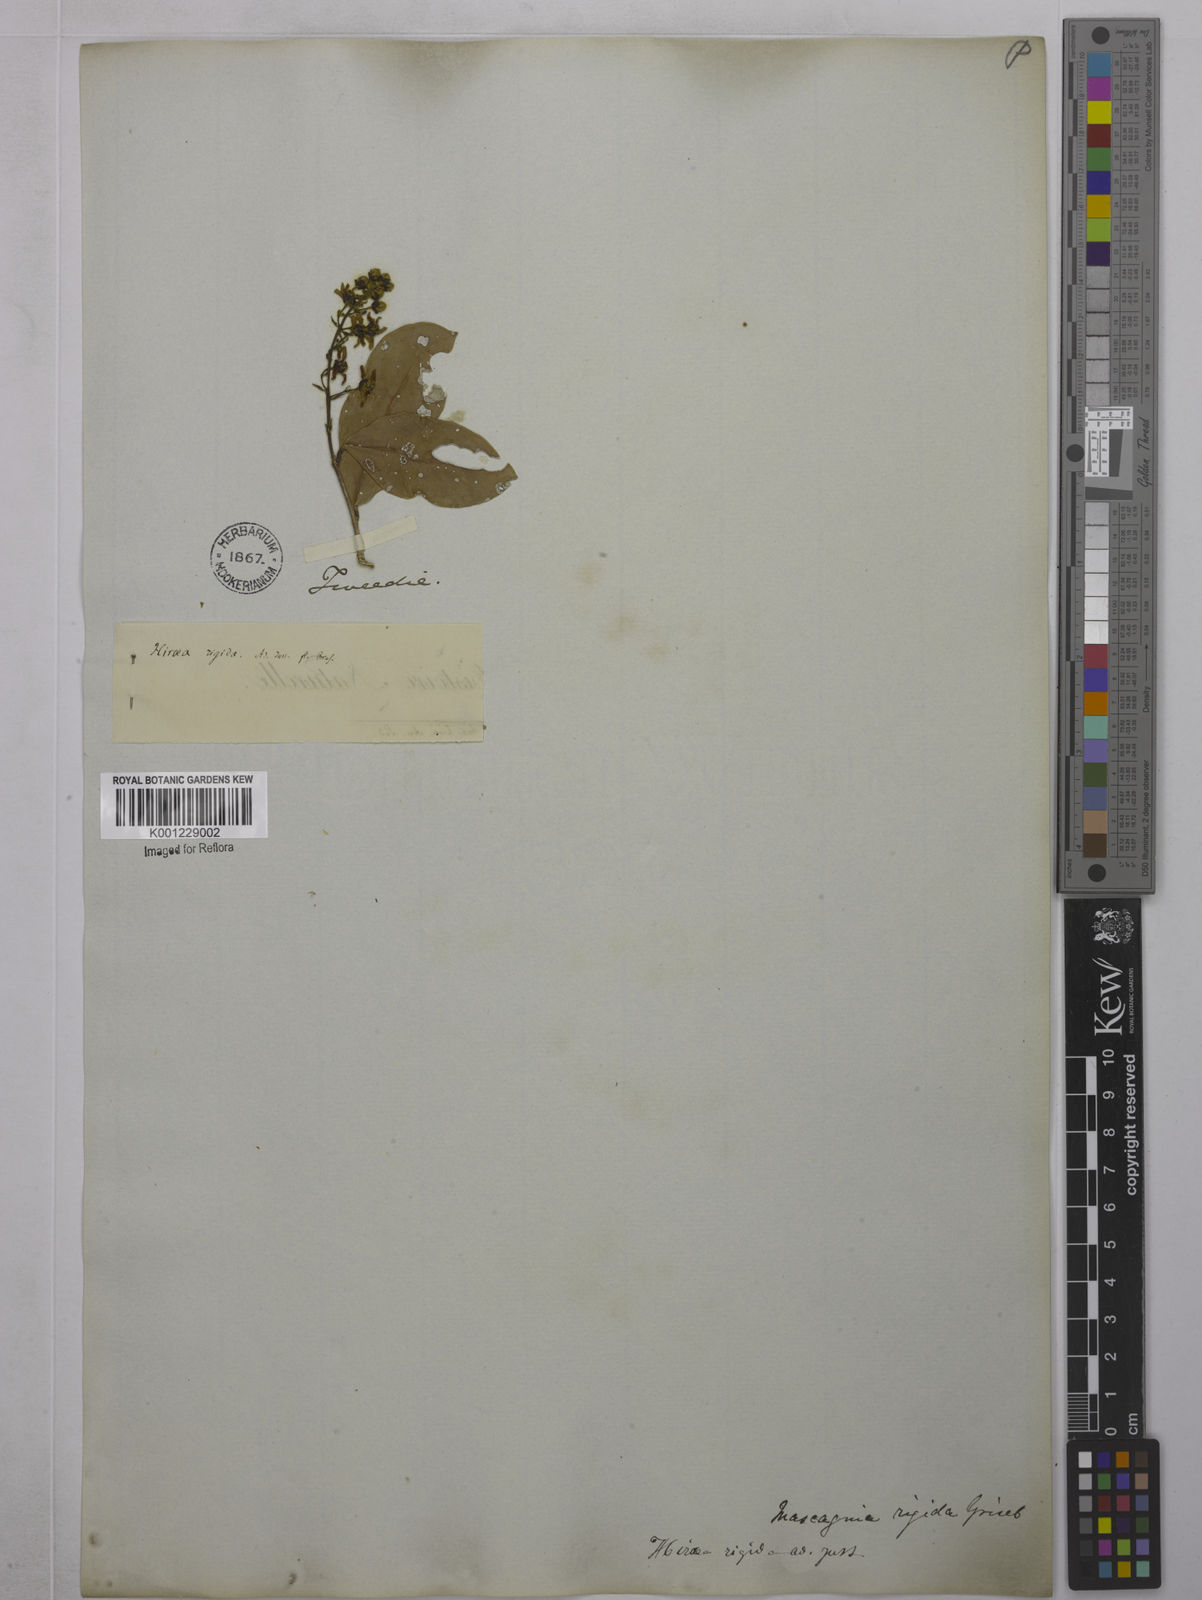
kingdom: Plantae
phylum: Tracheophyta
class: Magnoliopsida
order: Malpighiales
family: Malpighiaceae
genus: Amorimia
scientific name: Amorimia rigida
